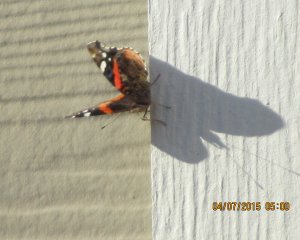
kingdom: Animalia
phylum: Arthropoda
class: Insecta
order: Lepidoptera
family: Nymphalidae
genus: Vanessa
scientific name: Vanessa atalanta
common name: Red Admiral
